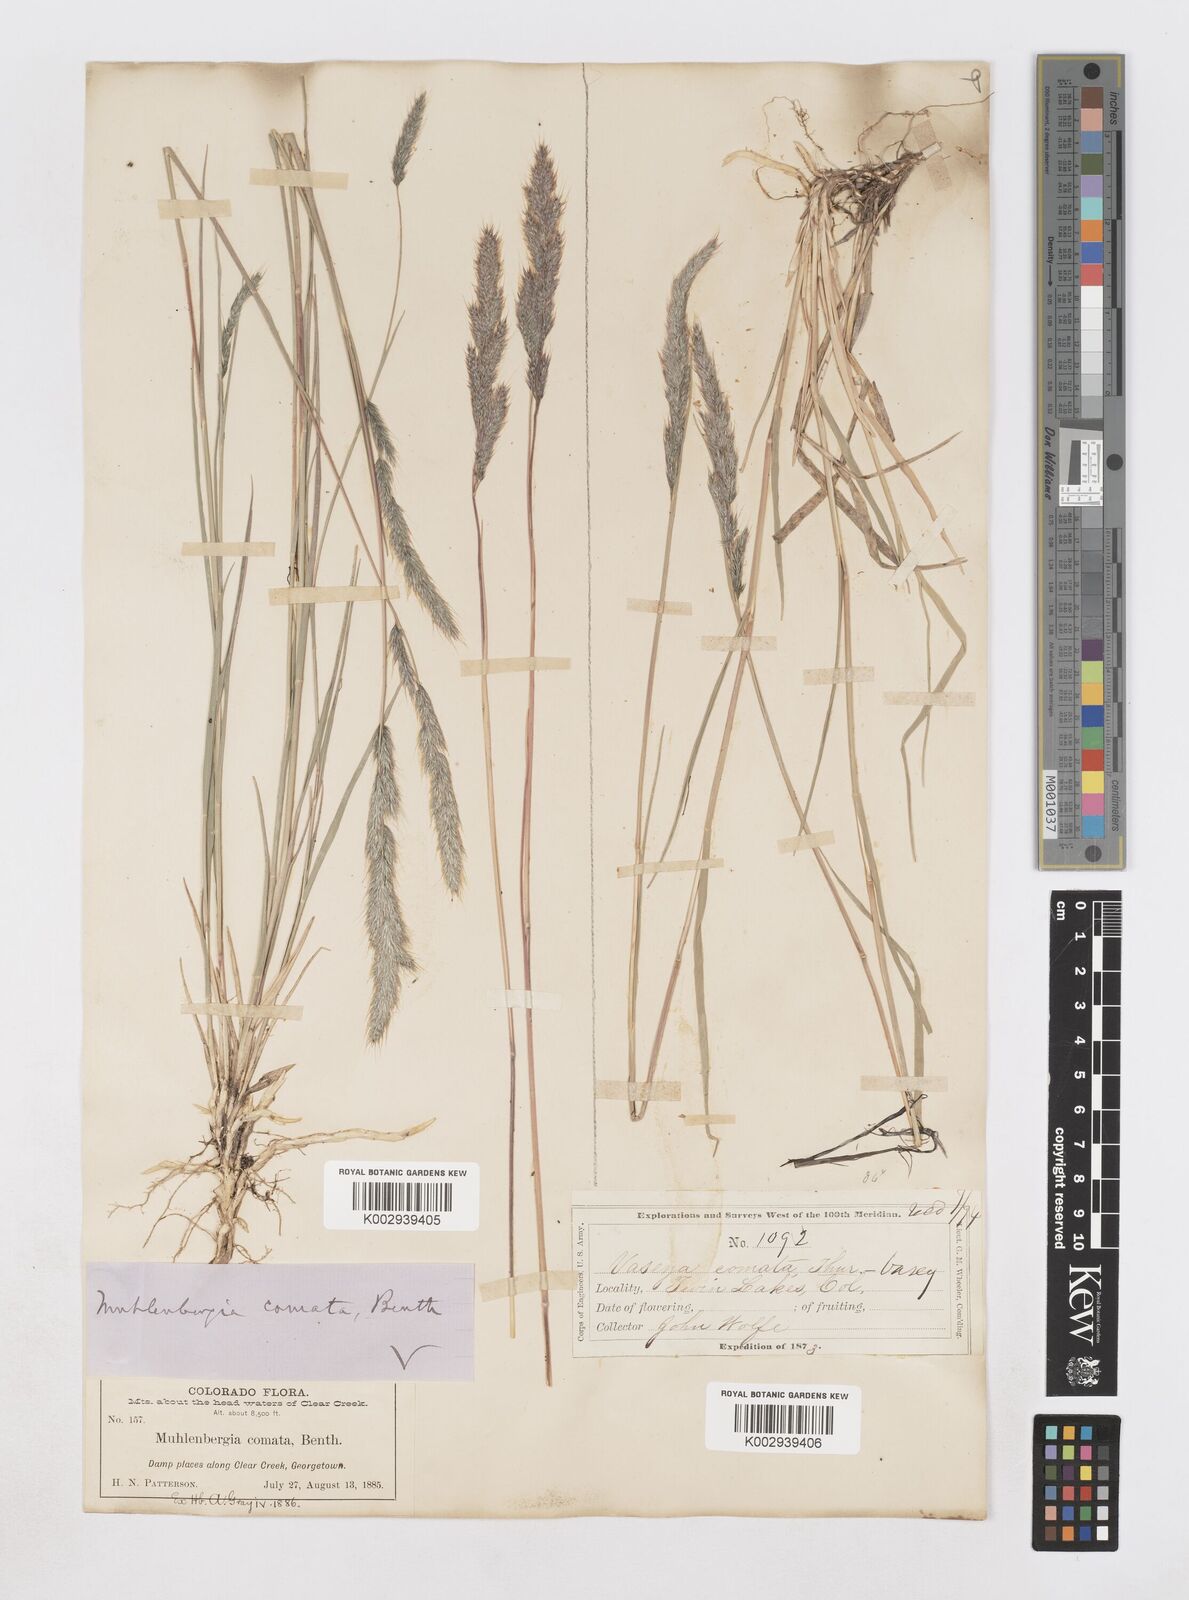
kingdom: Plantae
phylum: Tracheophyta
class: Liliopsida
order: Poales
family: Poaceae
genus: Muhlenbergia
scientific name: Muhlenbergia andina
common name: Foxtail muhly
